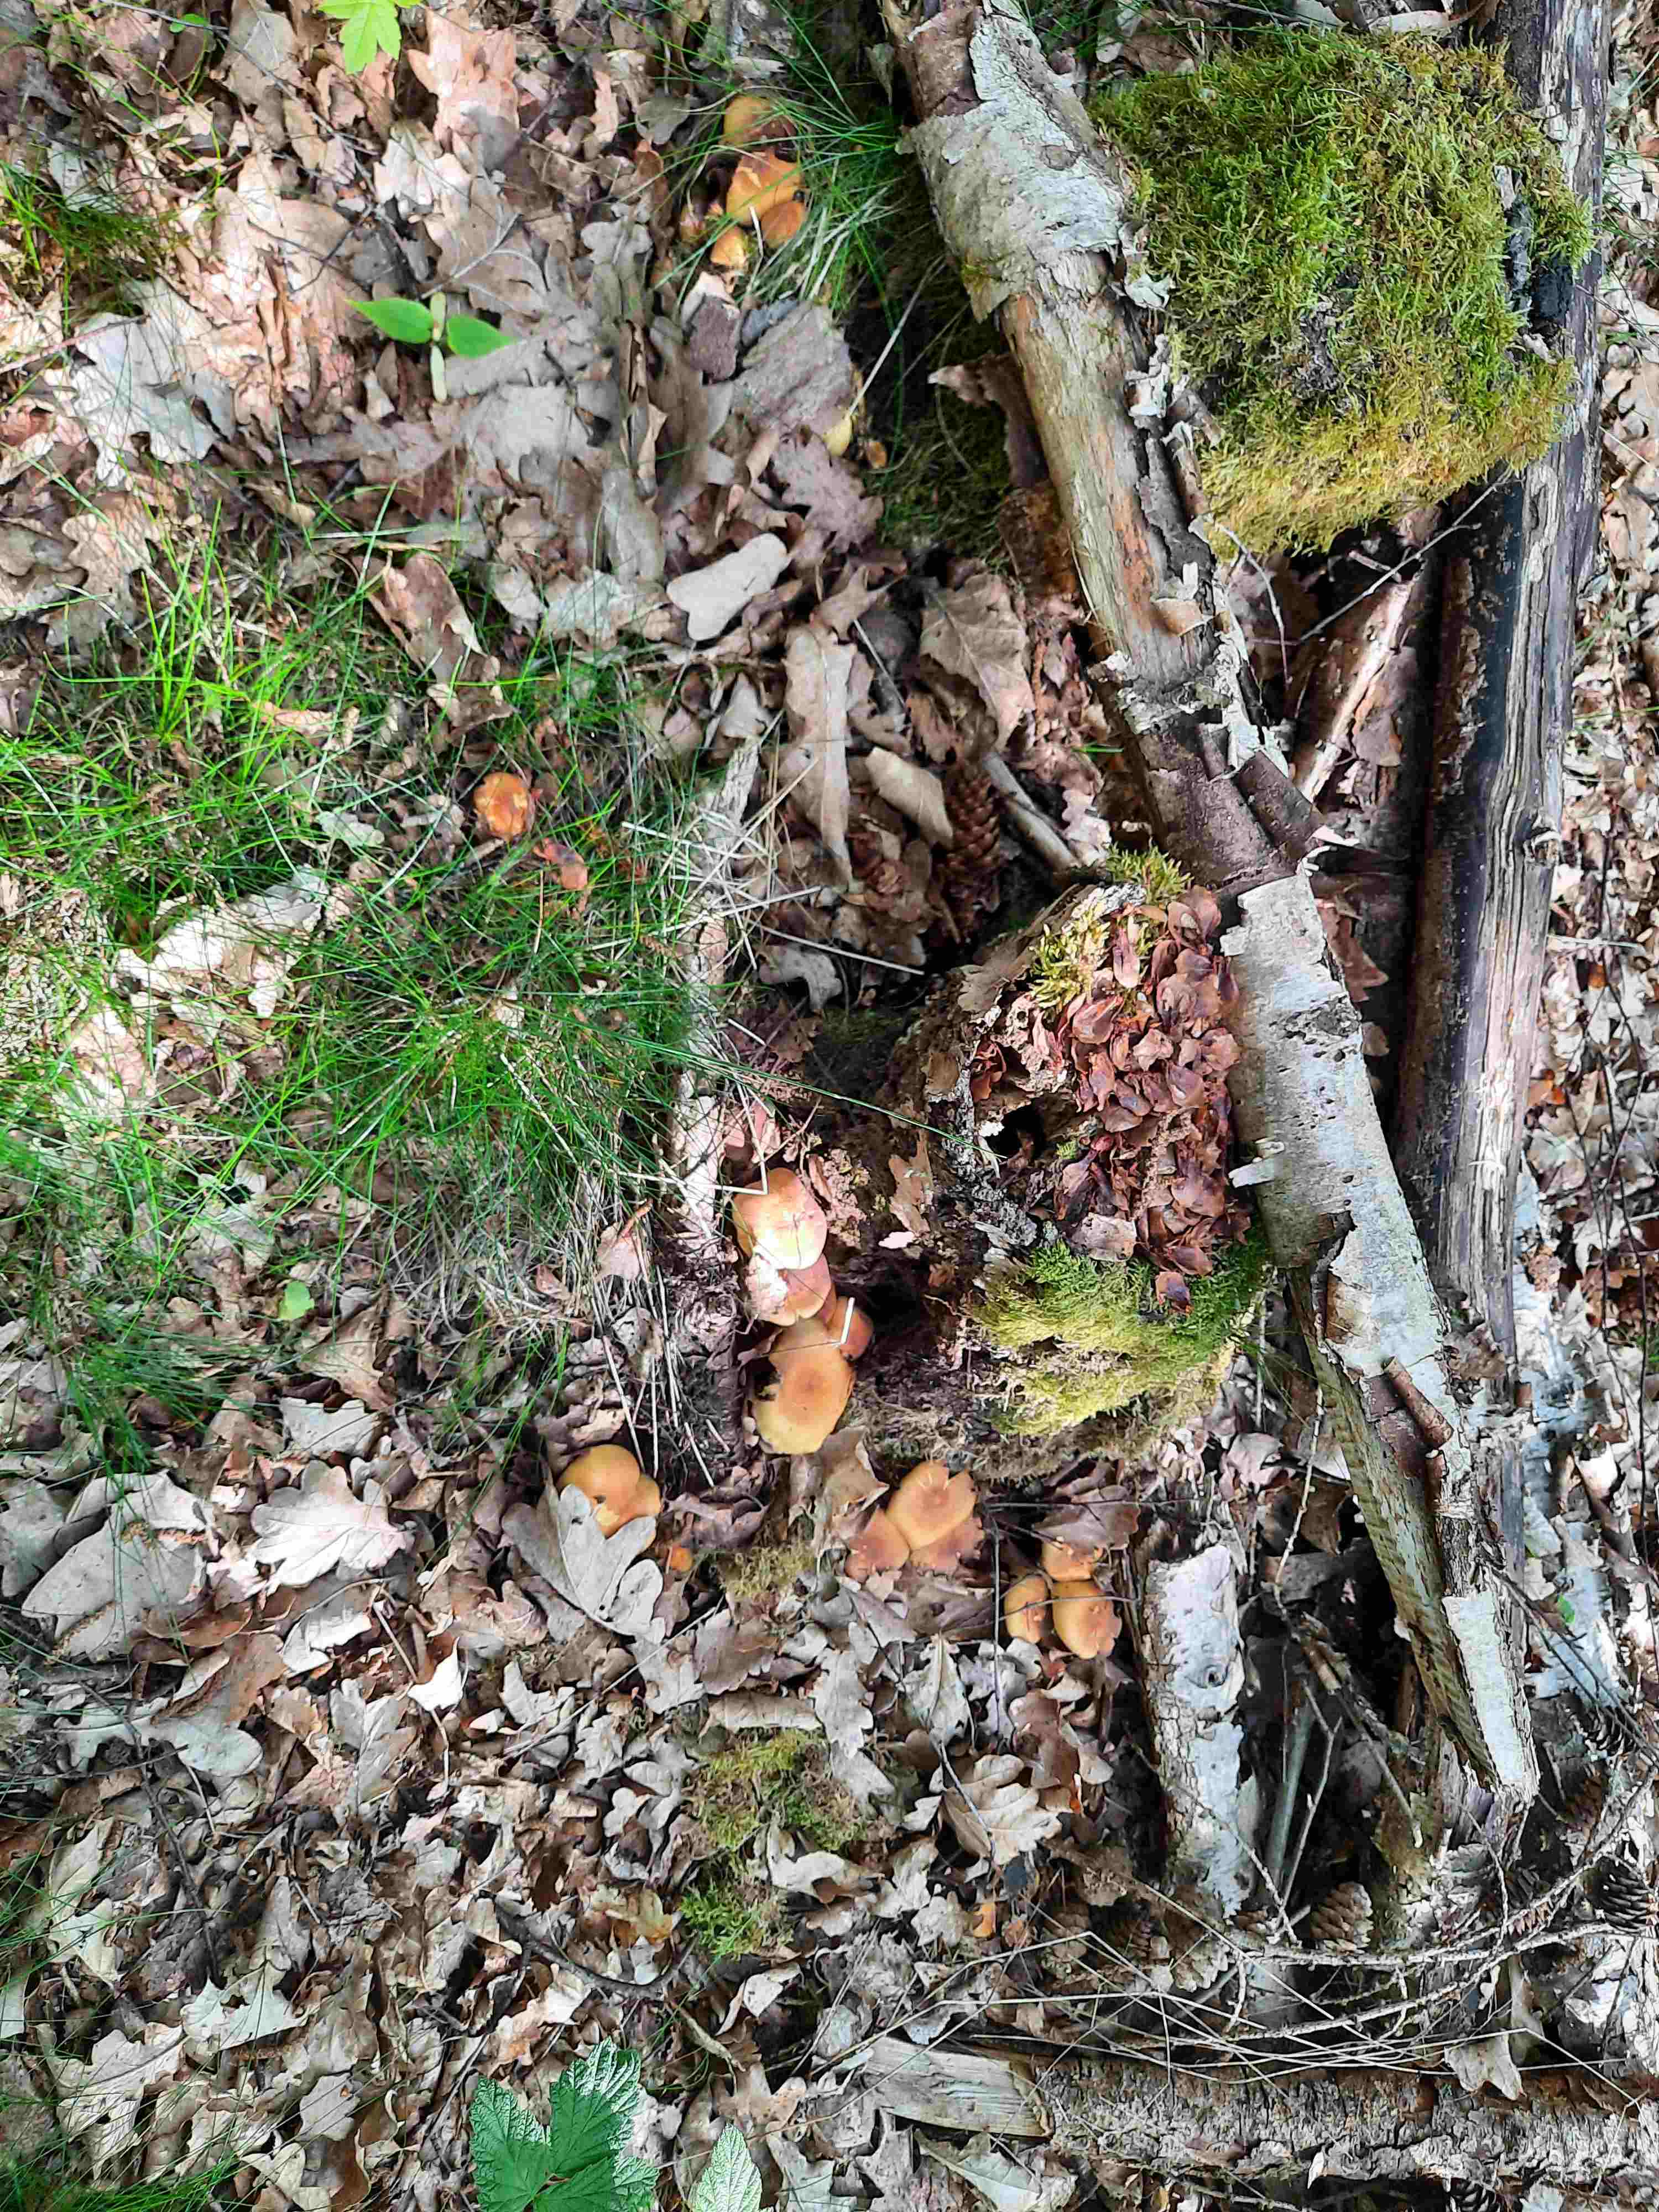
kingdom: Fungi
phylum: Basidiomycota
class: Agaricomycetes
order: Agaricales
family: Strophariaceae
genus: Hypholoma
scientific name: Hypholoma fasciculare
